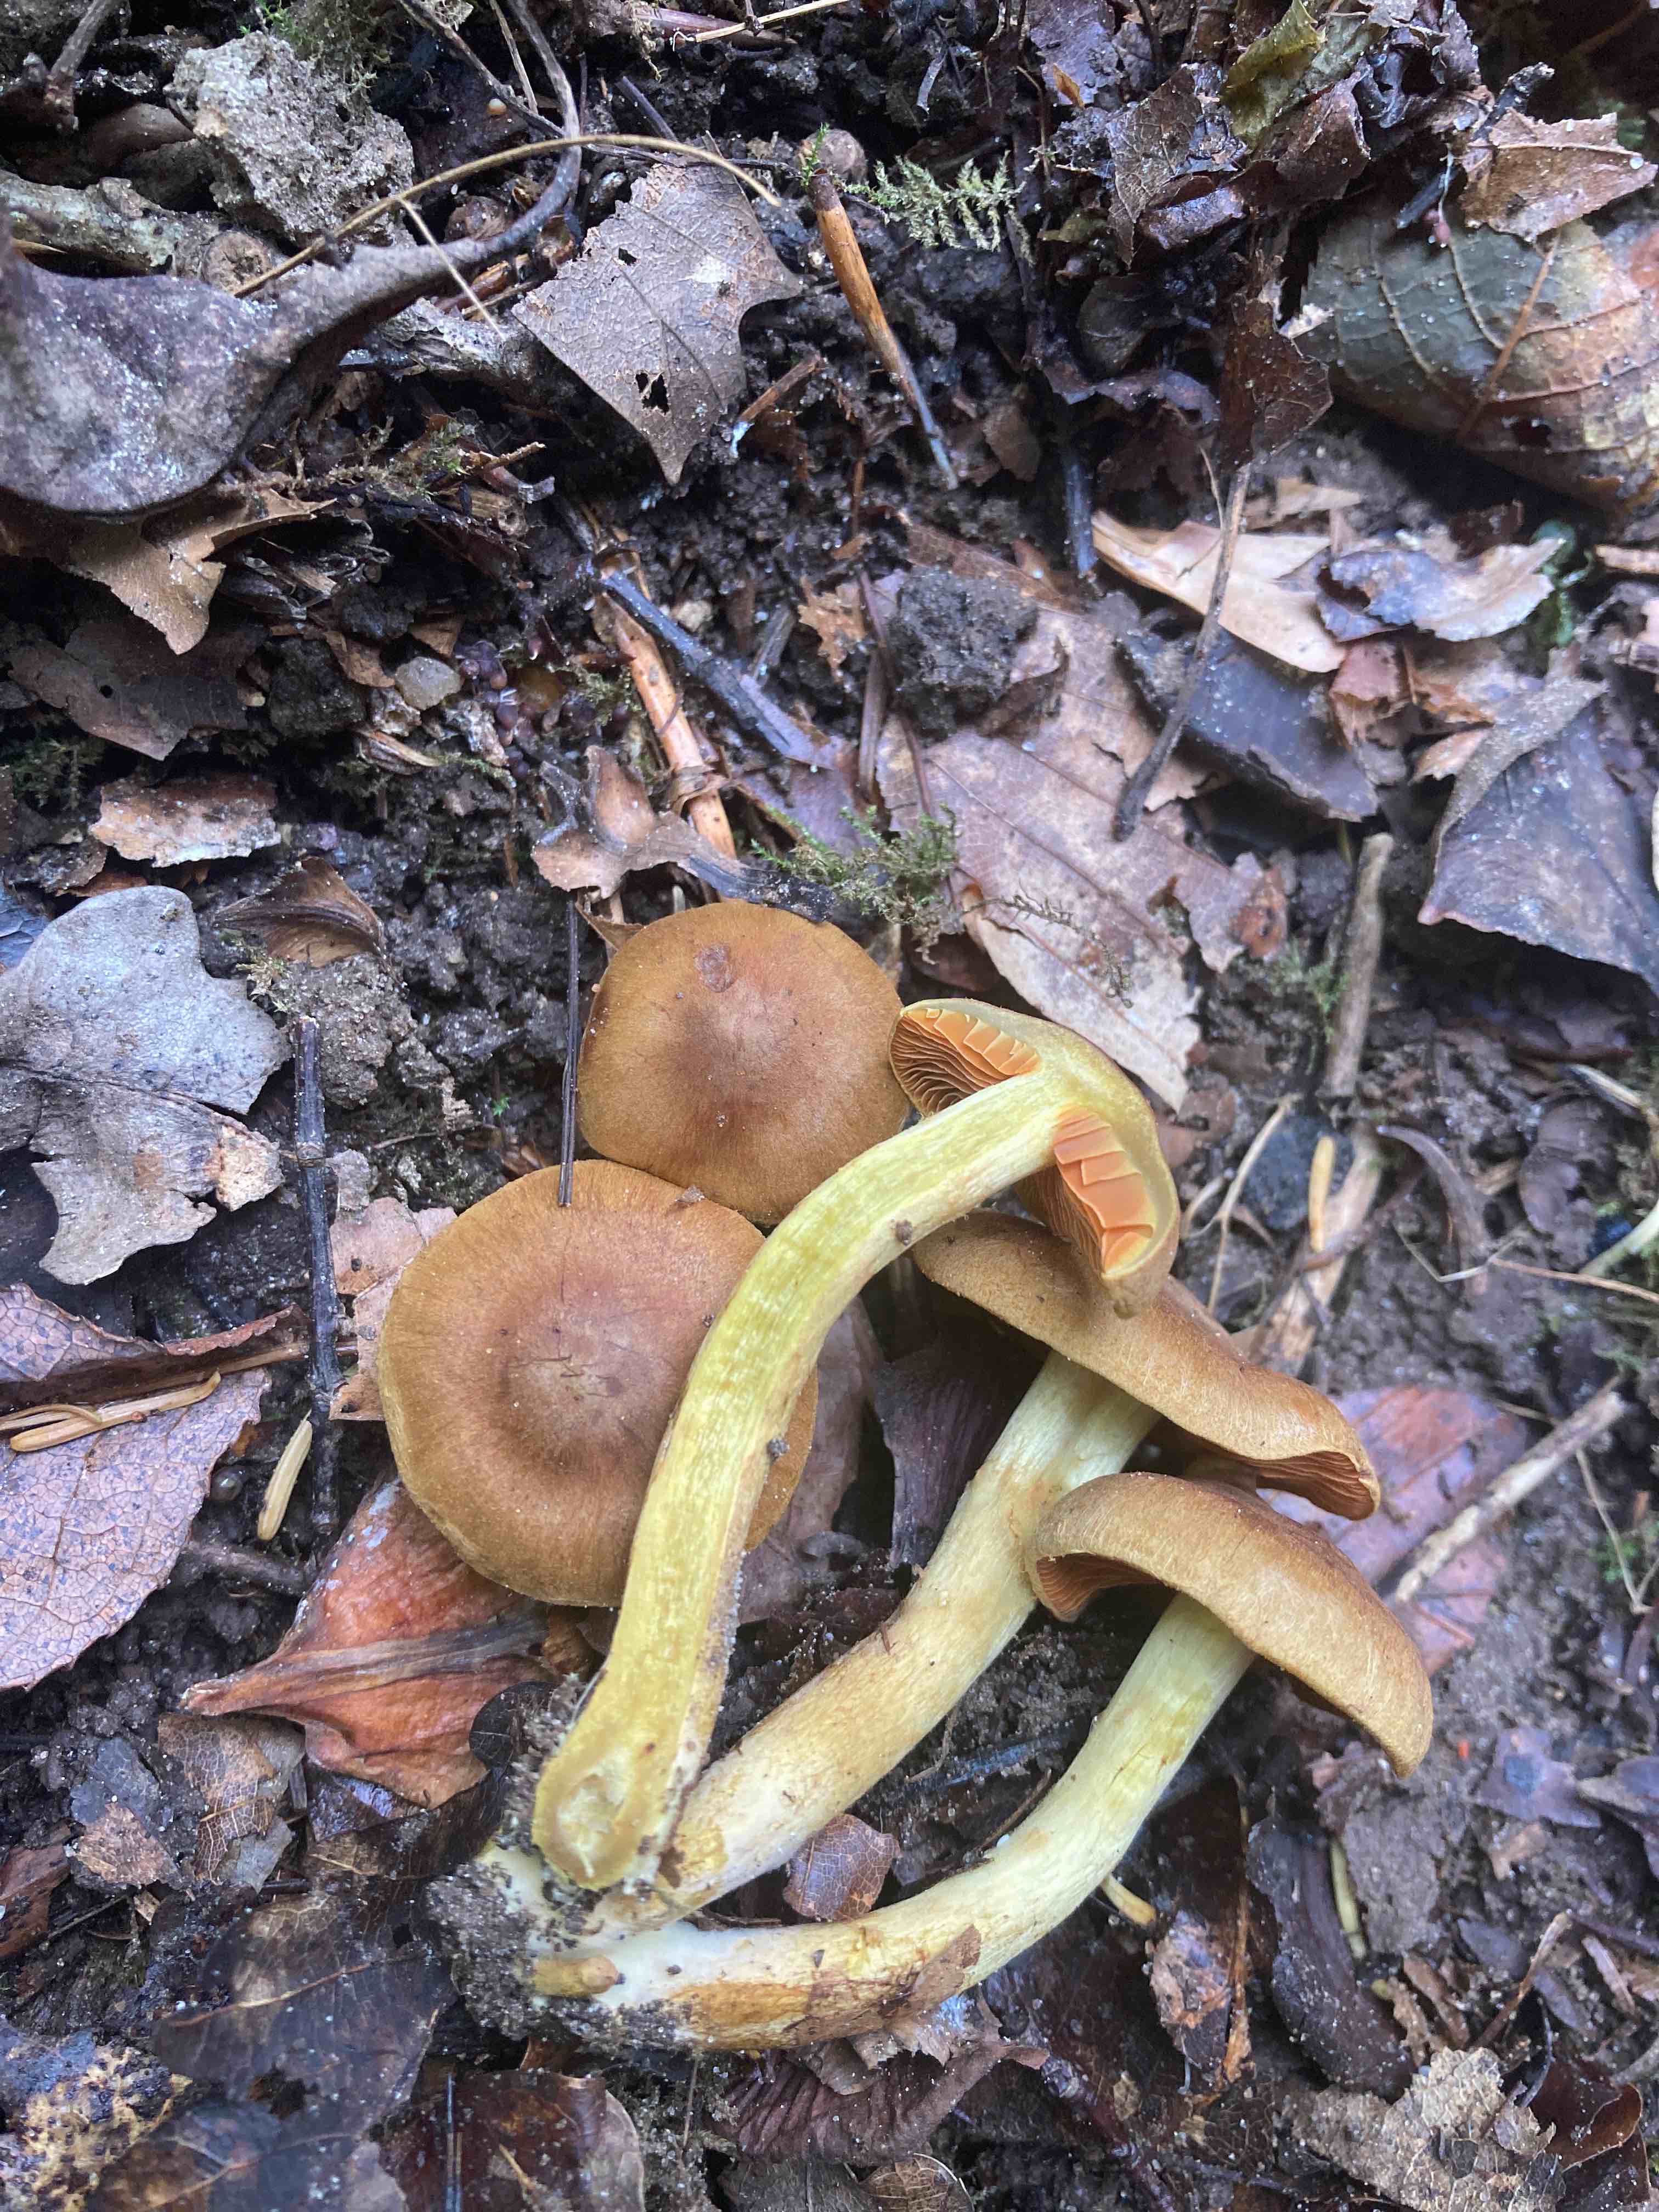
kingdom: Fungi
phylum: Basidiomycota
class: Agaricomycetes
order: Agaricales
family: Cortinariaceae
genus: Cortinarius
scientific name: Cortinarius malicorius
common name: grønkødet slørhat
